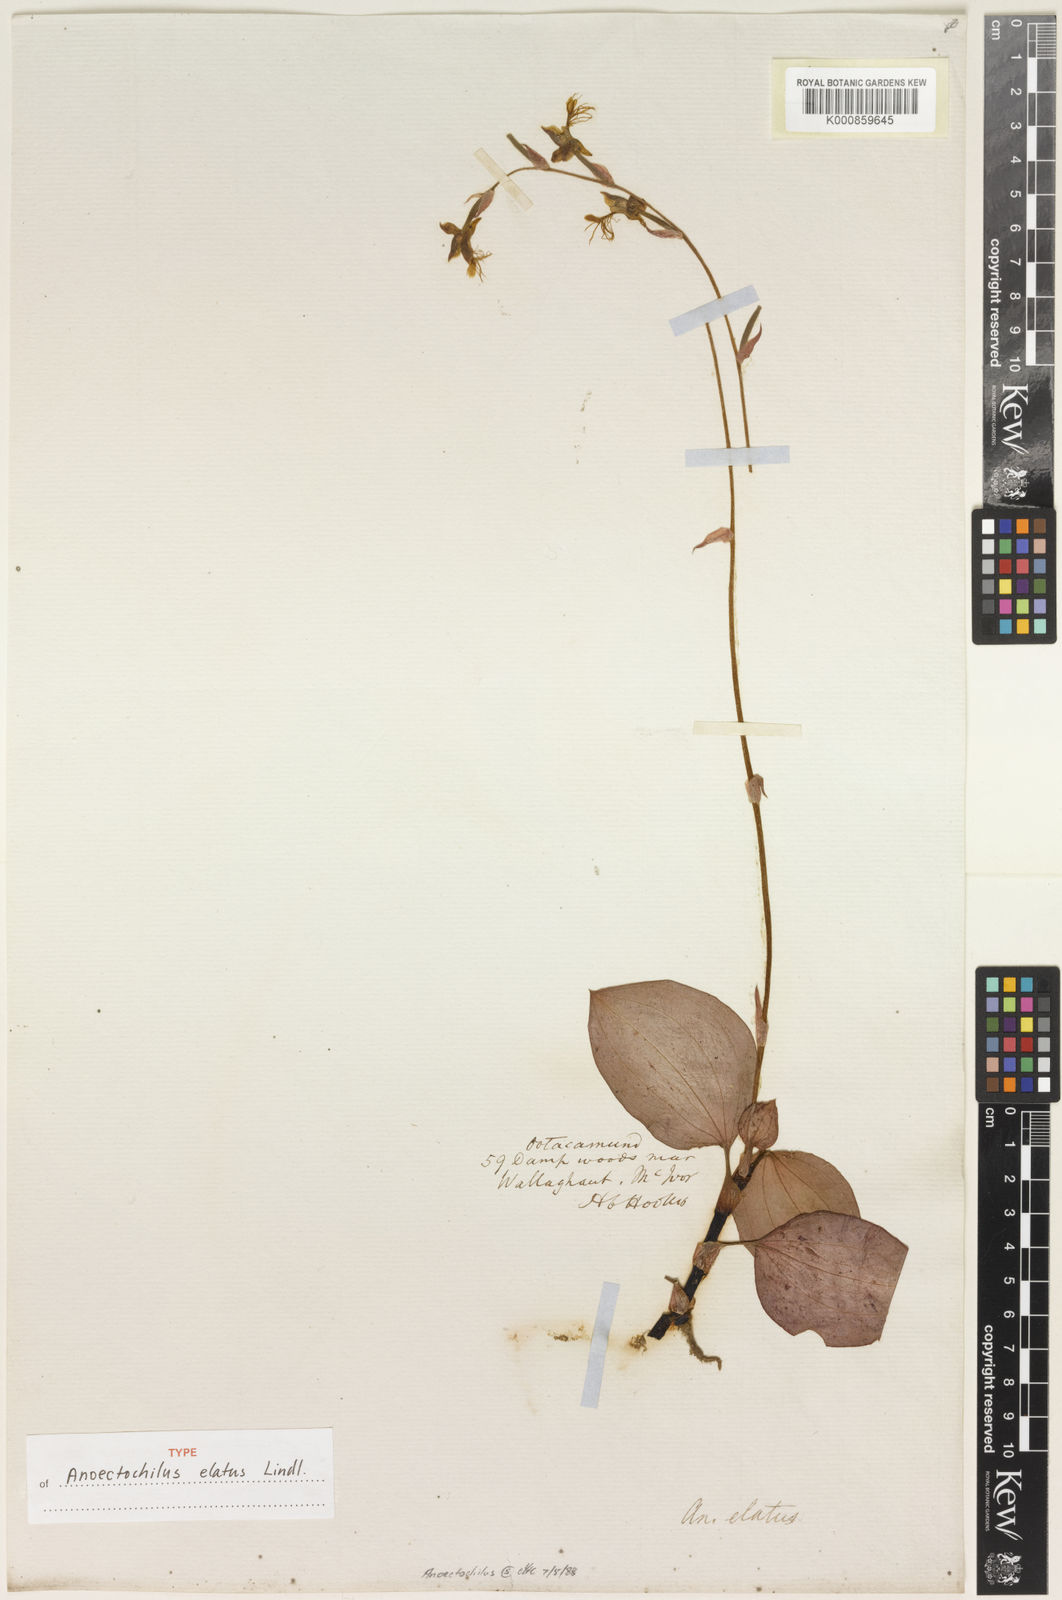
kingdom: Plantae
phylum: Tracheophyta
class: Liliopsida
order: Asparagales
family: Orchidaceae
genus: Anoectochilus
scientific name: Anoectochilus elatus
